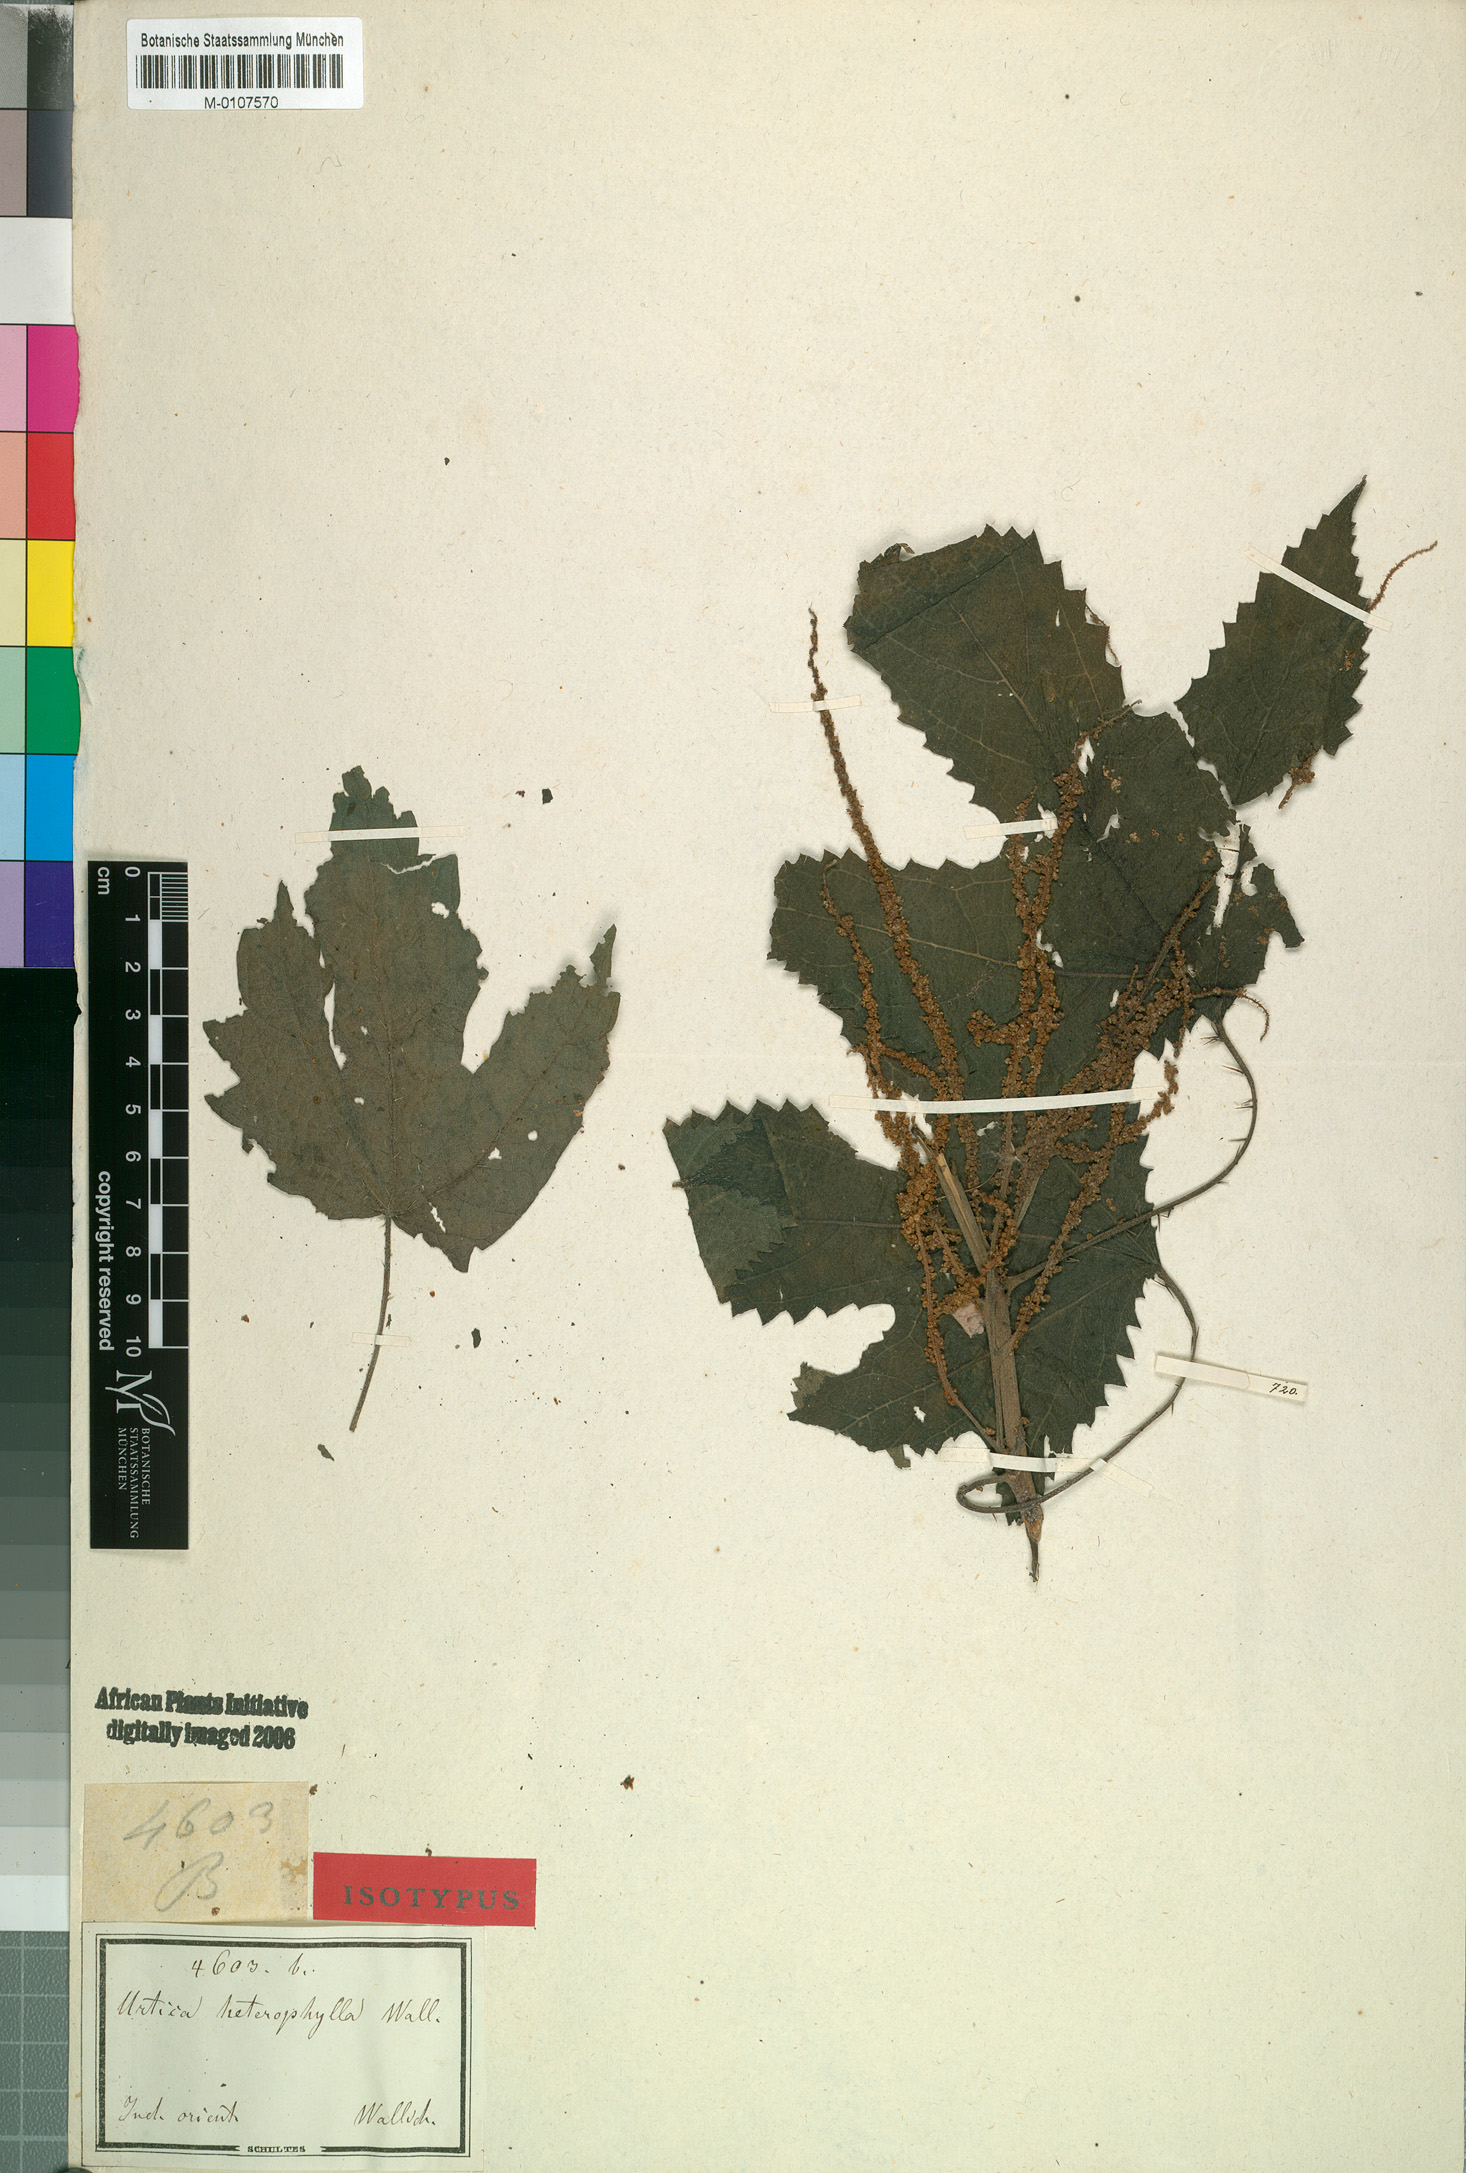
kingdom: Plantae
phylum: Tracheophyta
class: Magnoliopsida
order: Rosales
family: Urticaceae
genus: Girardinia
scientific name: Girardinia diversifolia
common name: Himalayan-nettle
